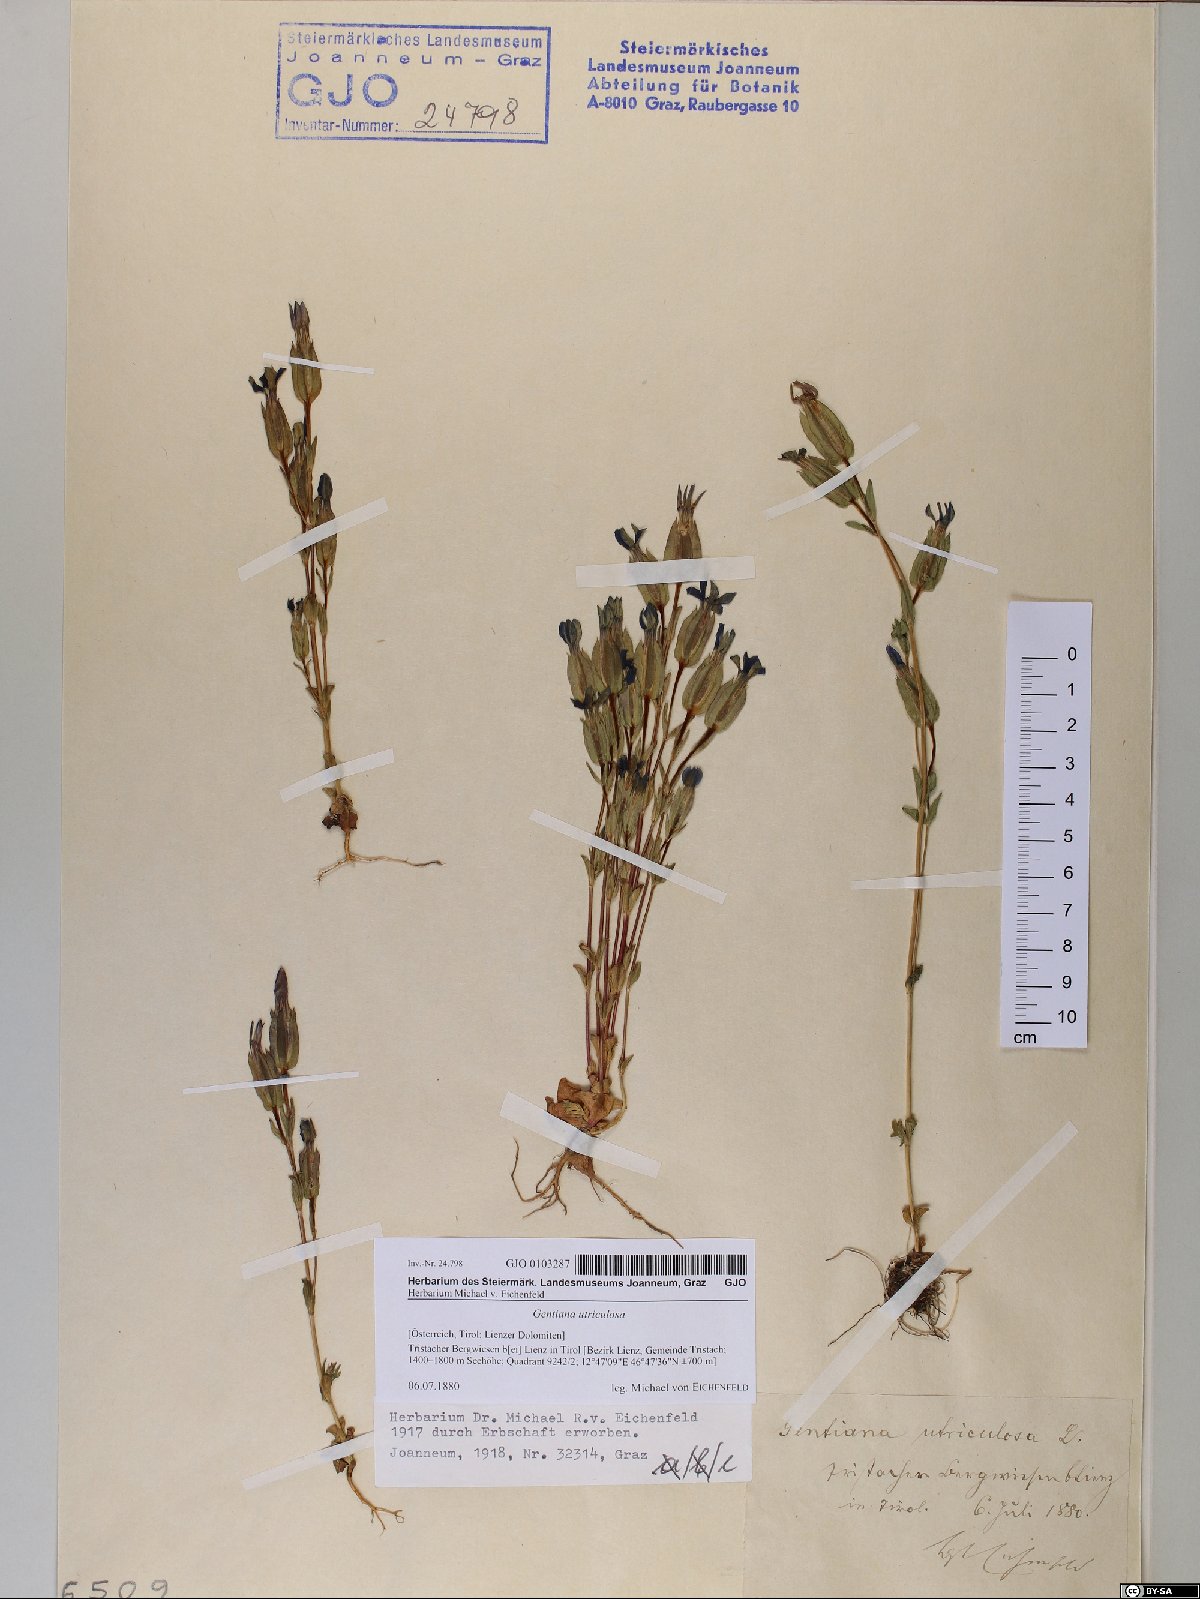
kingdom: Plantae
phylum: Tracheophyta
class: Magnoliopsida
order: Gentianales
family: Gentianaceae
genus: Gentiana
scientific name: Gentiana utriculosa
